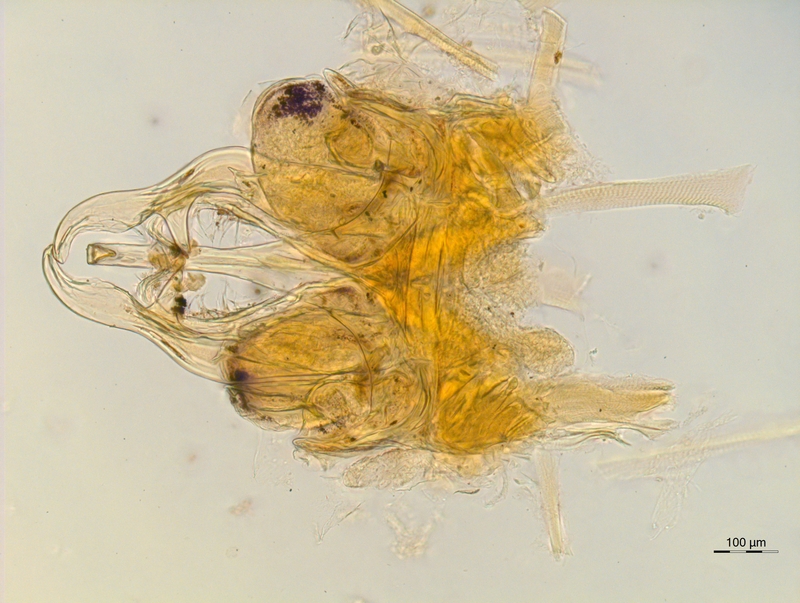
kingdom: Animalia
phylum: Arthropoda
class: Diplopoda
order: Chordeumatida
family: Chordeumatidae
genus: Mycogona
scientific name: Mycogona germanica
